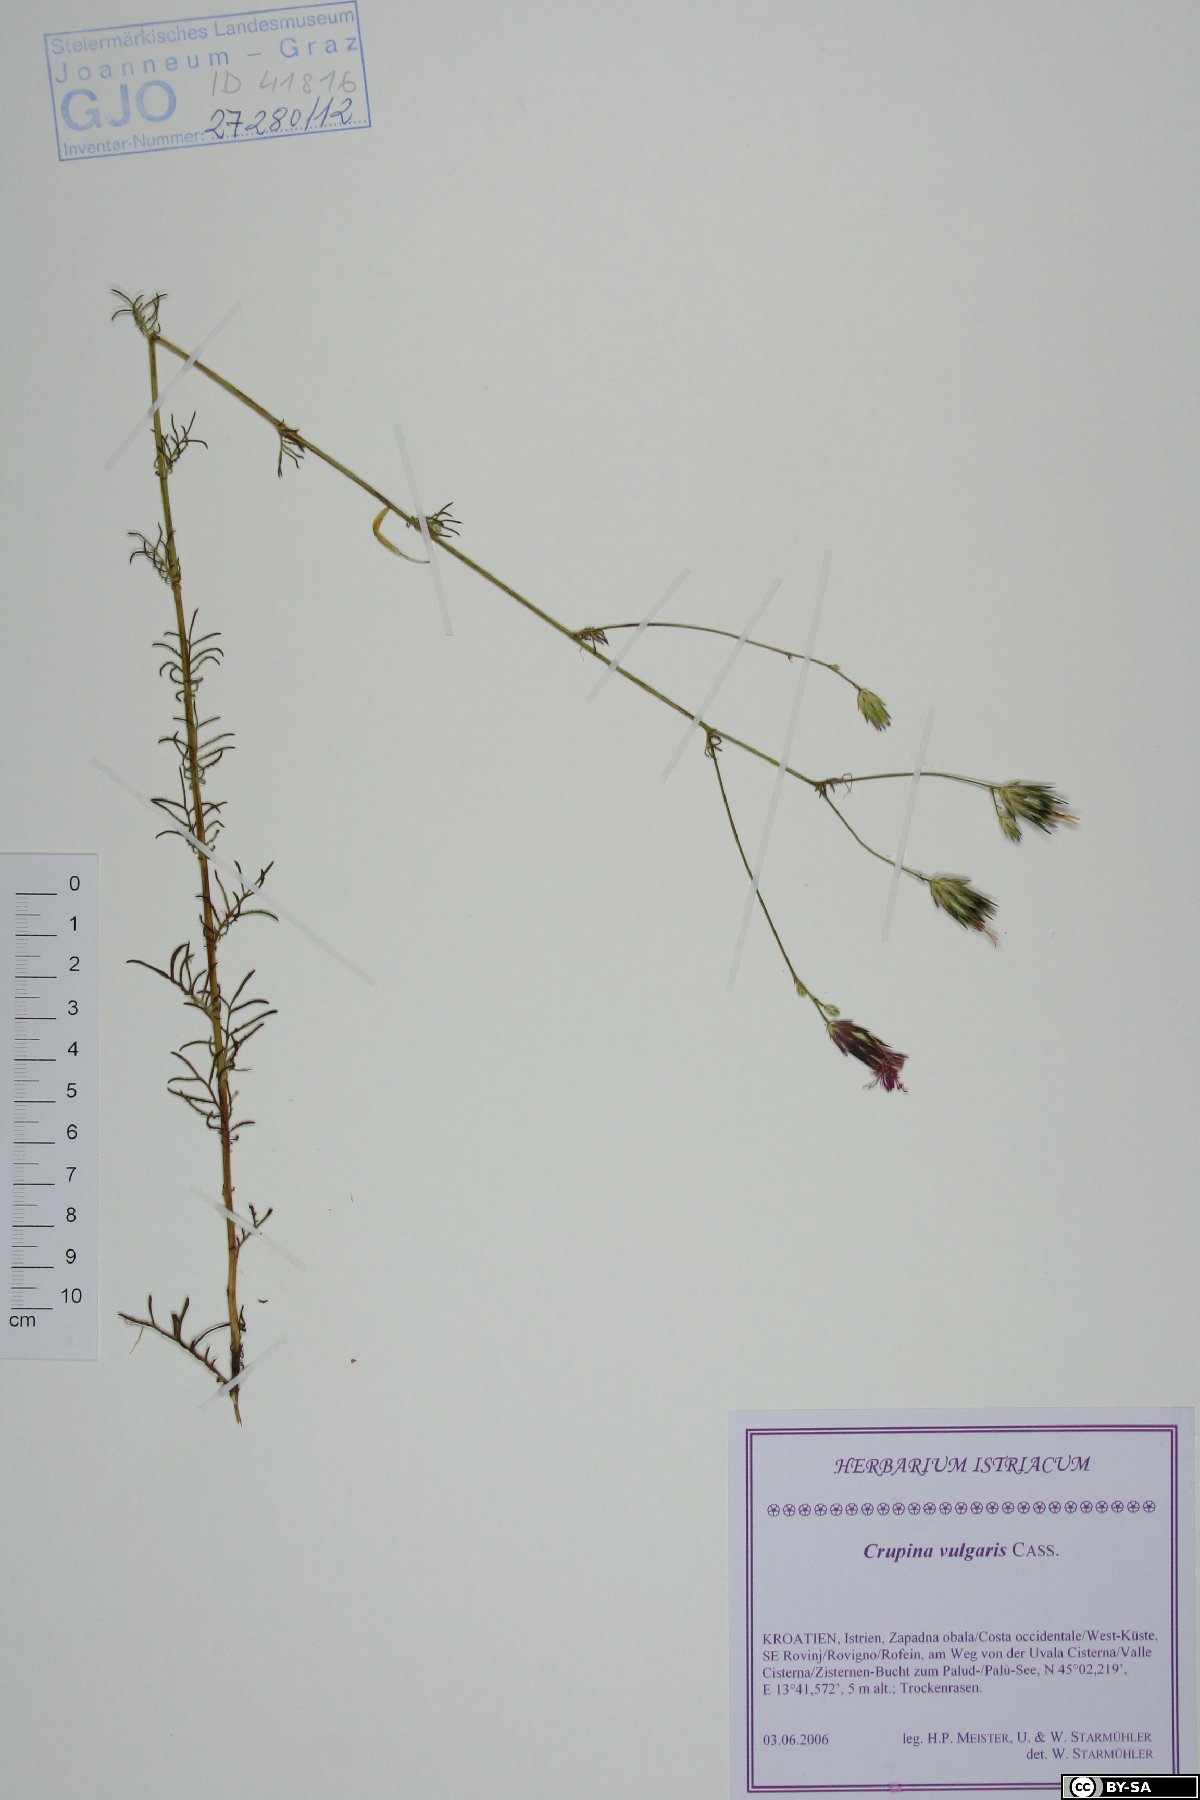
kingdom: Plantae
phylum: Tracheophyta
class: Magnoliopsida
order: Asterales
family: Asteraceae
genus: Crupina
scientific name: Crupina vulgaris
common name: Common crupina
